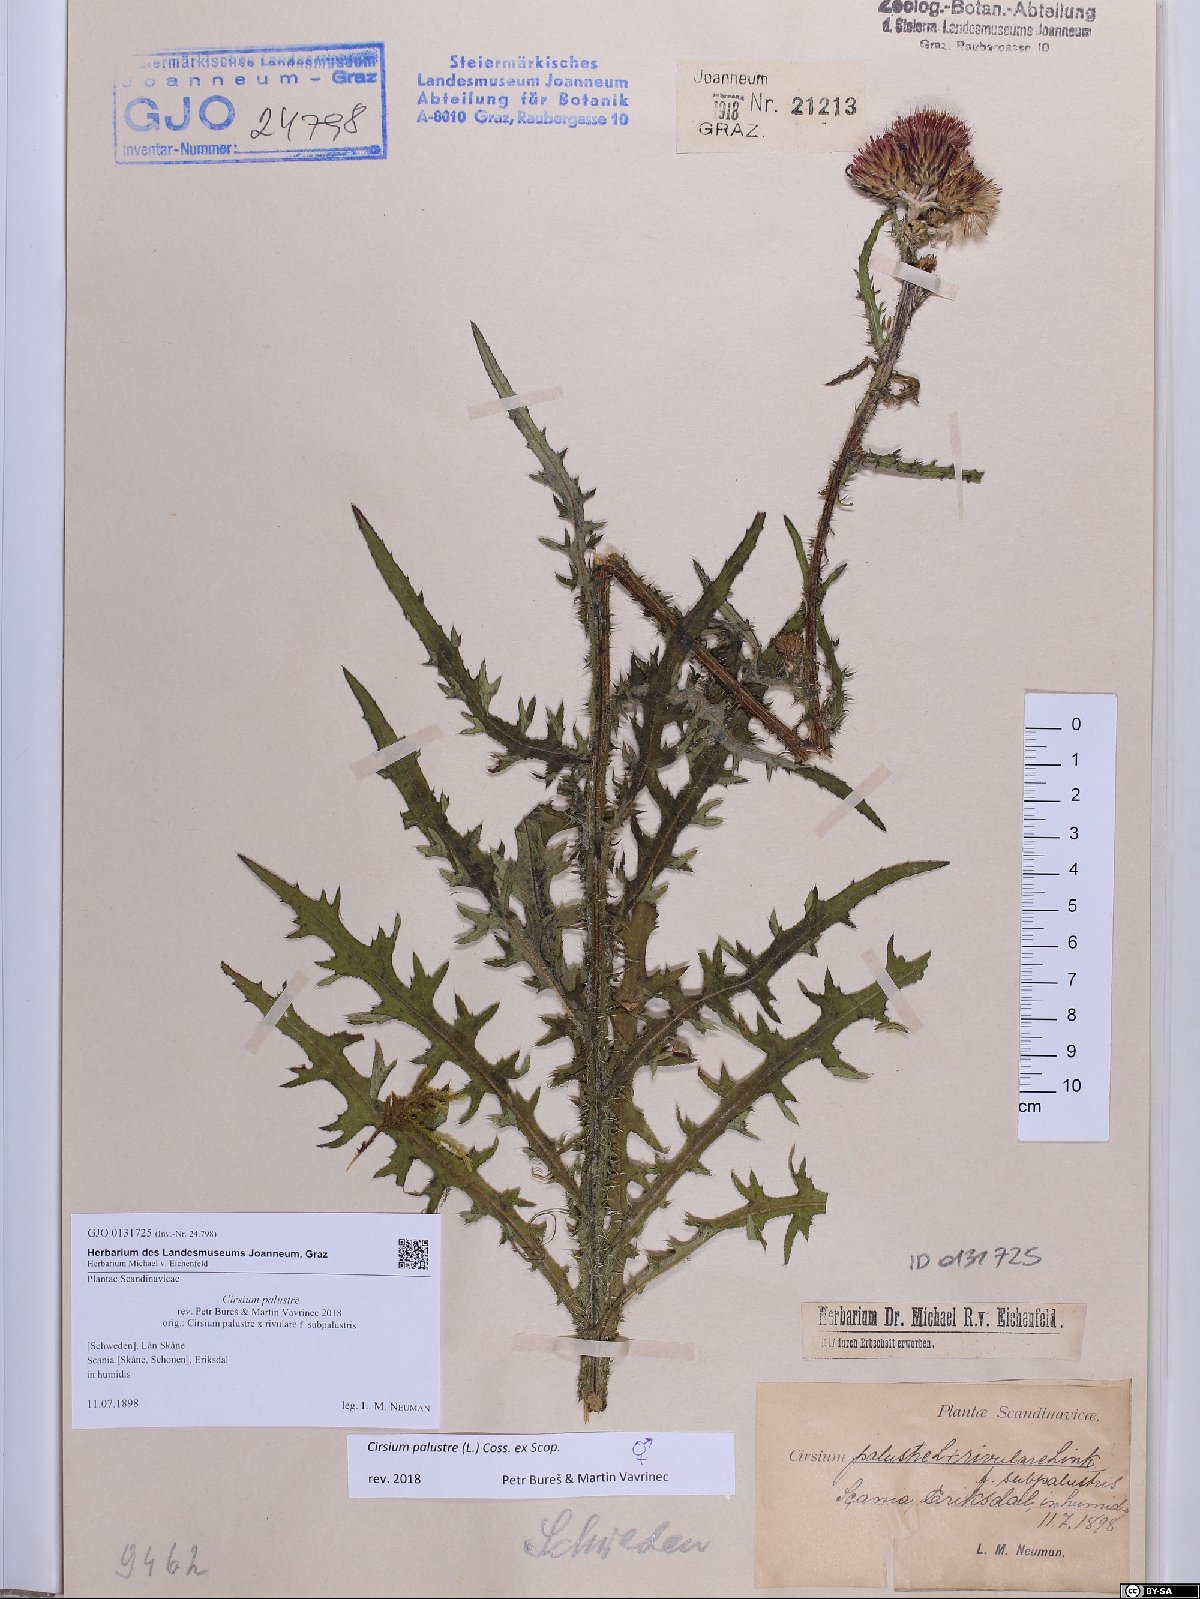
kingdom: Plantae
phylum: Tracheophyta
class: Magnoliopsida
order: Asterales
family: Asteraceae
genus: Cirsium
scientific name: Cirsium palustre
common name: Marsh thistle
